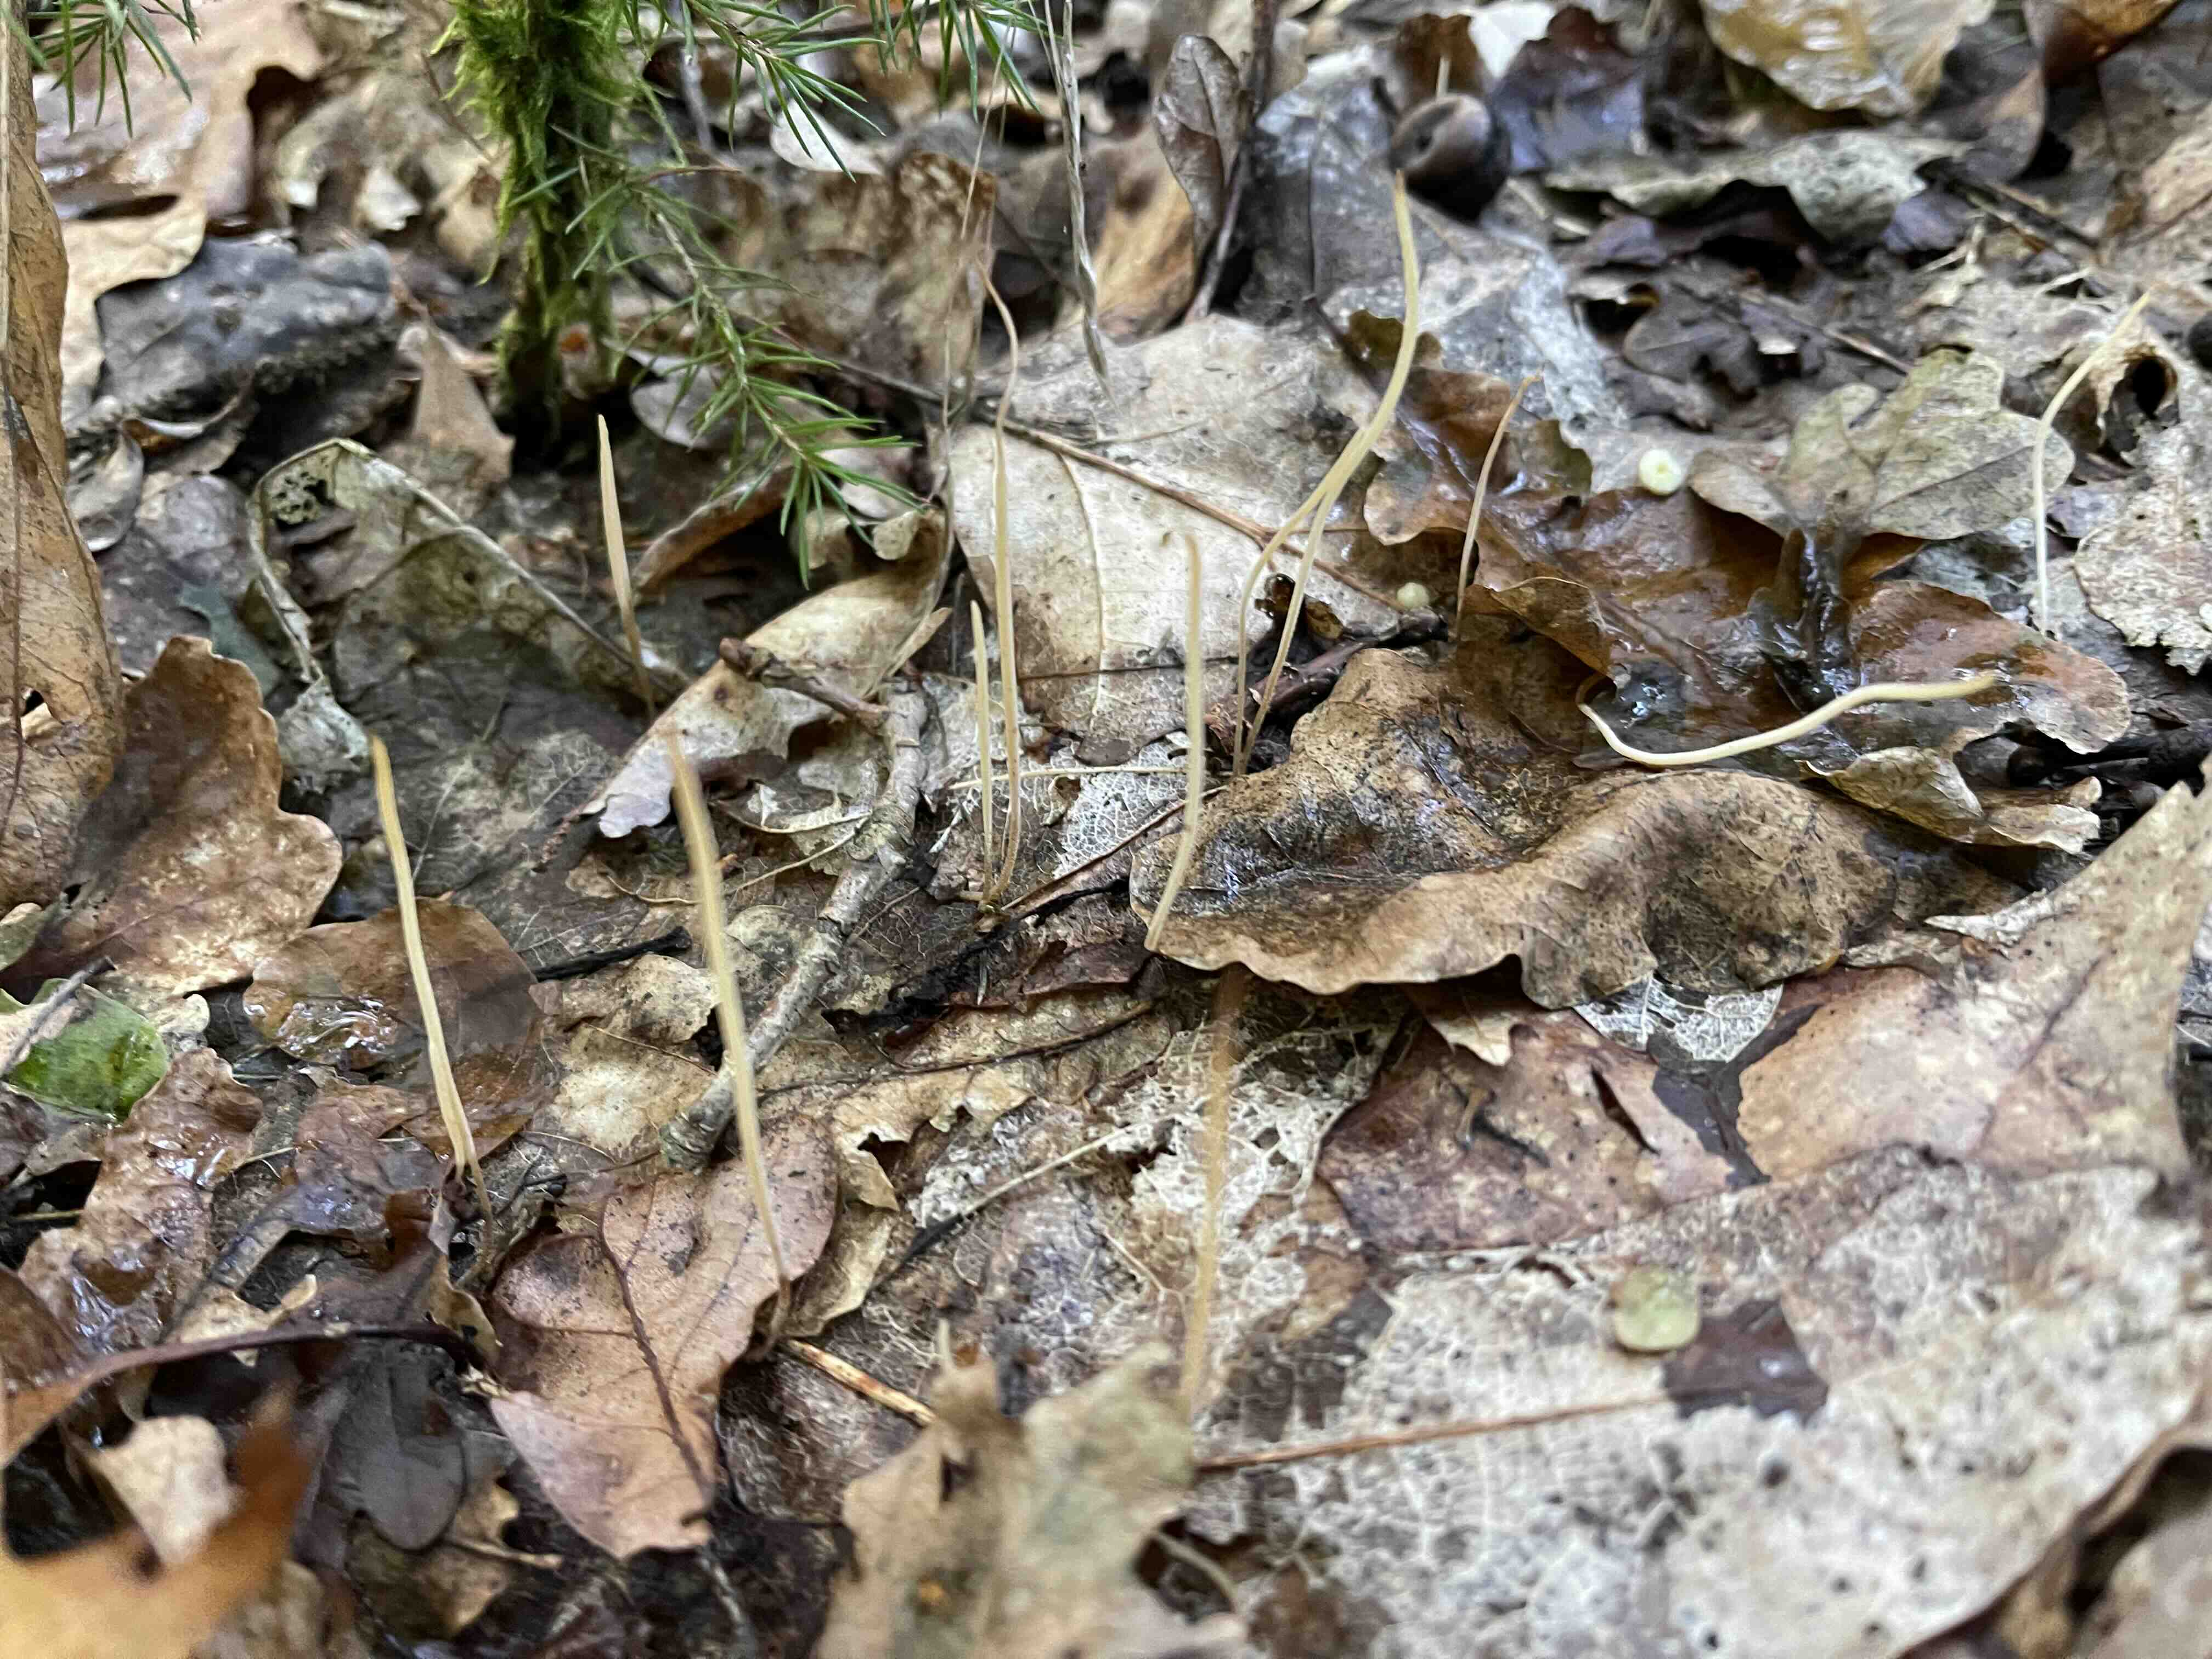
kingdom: Fungi
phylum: Basidiomycota
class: Agaricomycetes
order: Agaricales
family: Typhulaceae
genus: Typhula
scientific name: Typhula juncea
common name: trådagtig rørkølle
